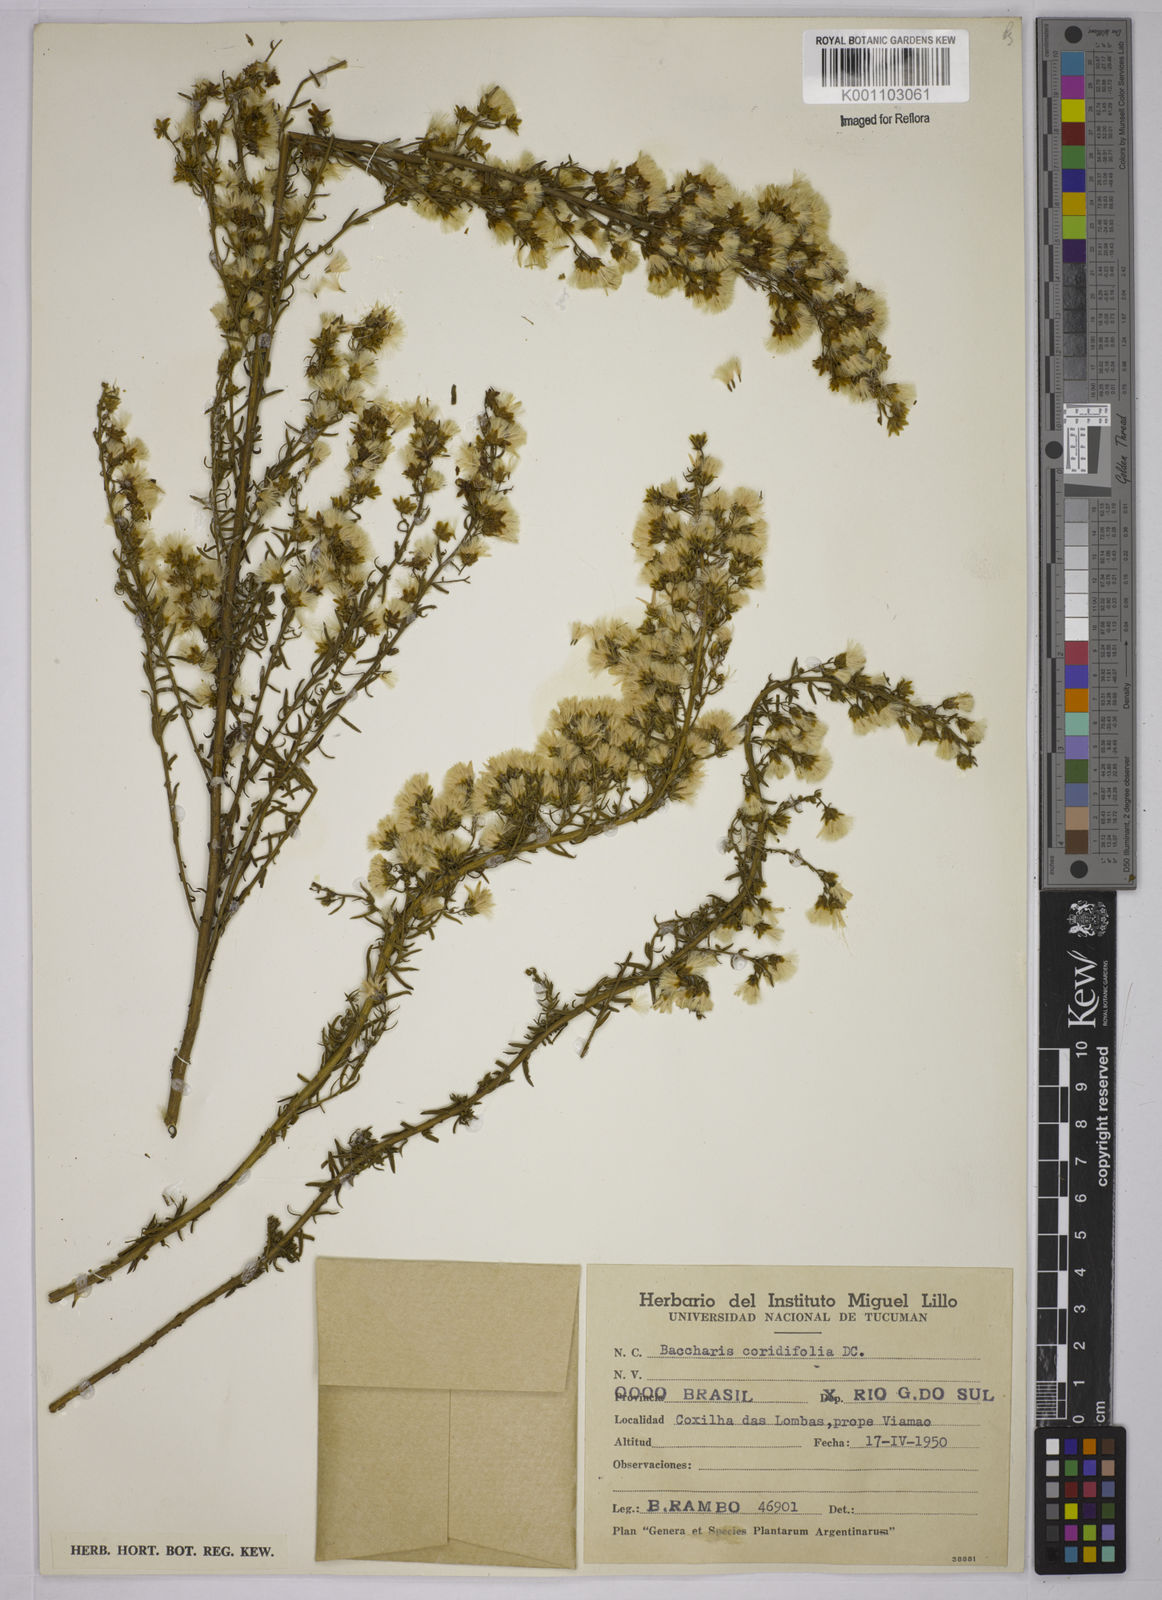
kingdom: Plantae
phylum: Tracheophyta
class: Magnoliopsida
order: Asterales
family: Asteraceae
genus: Baccharis
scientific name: Baccharis coridifolia
